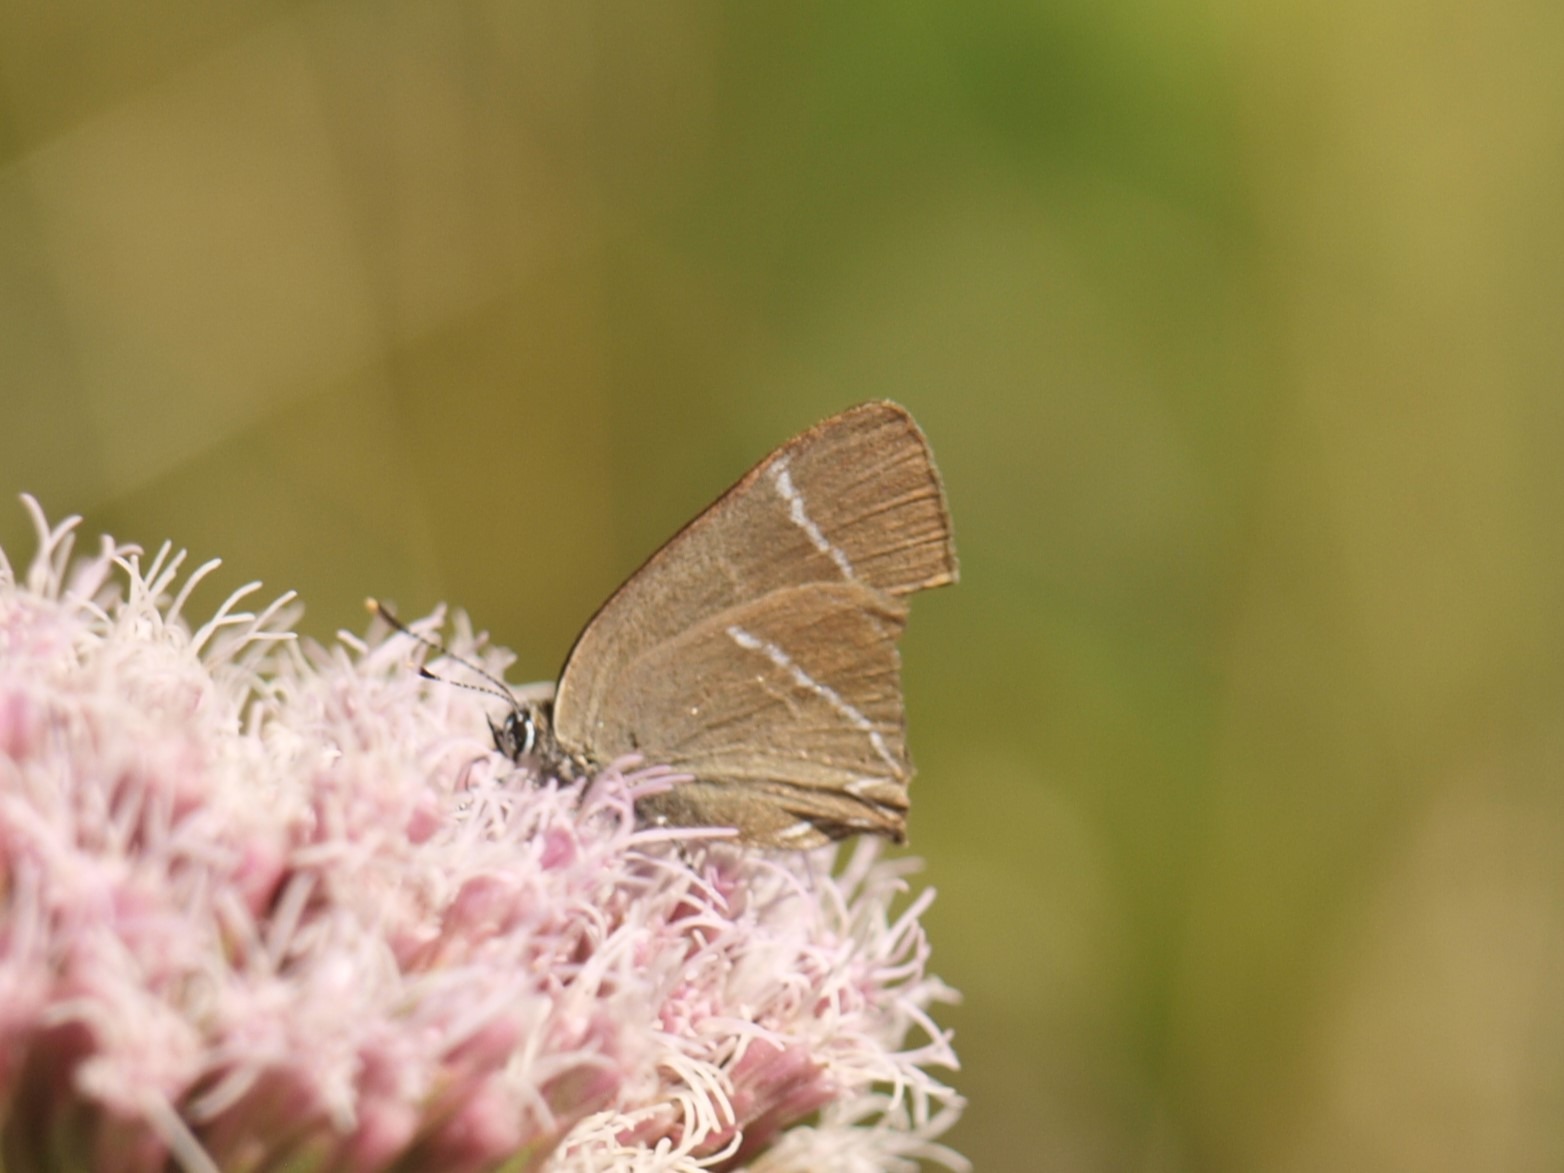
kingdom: Animalia
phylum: Arthropoda
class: Insecta
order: Lepidoptera
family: Lycaenidae
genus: Satyrium
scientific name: Satyrium w-album
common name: Det hvide W
